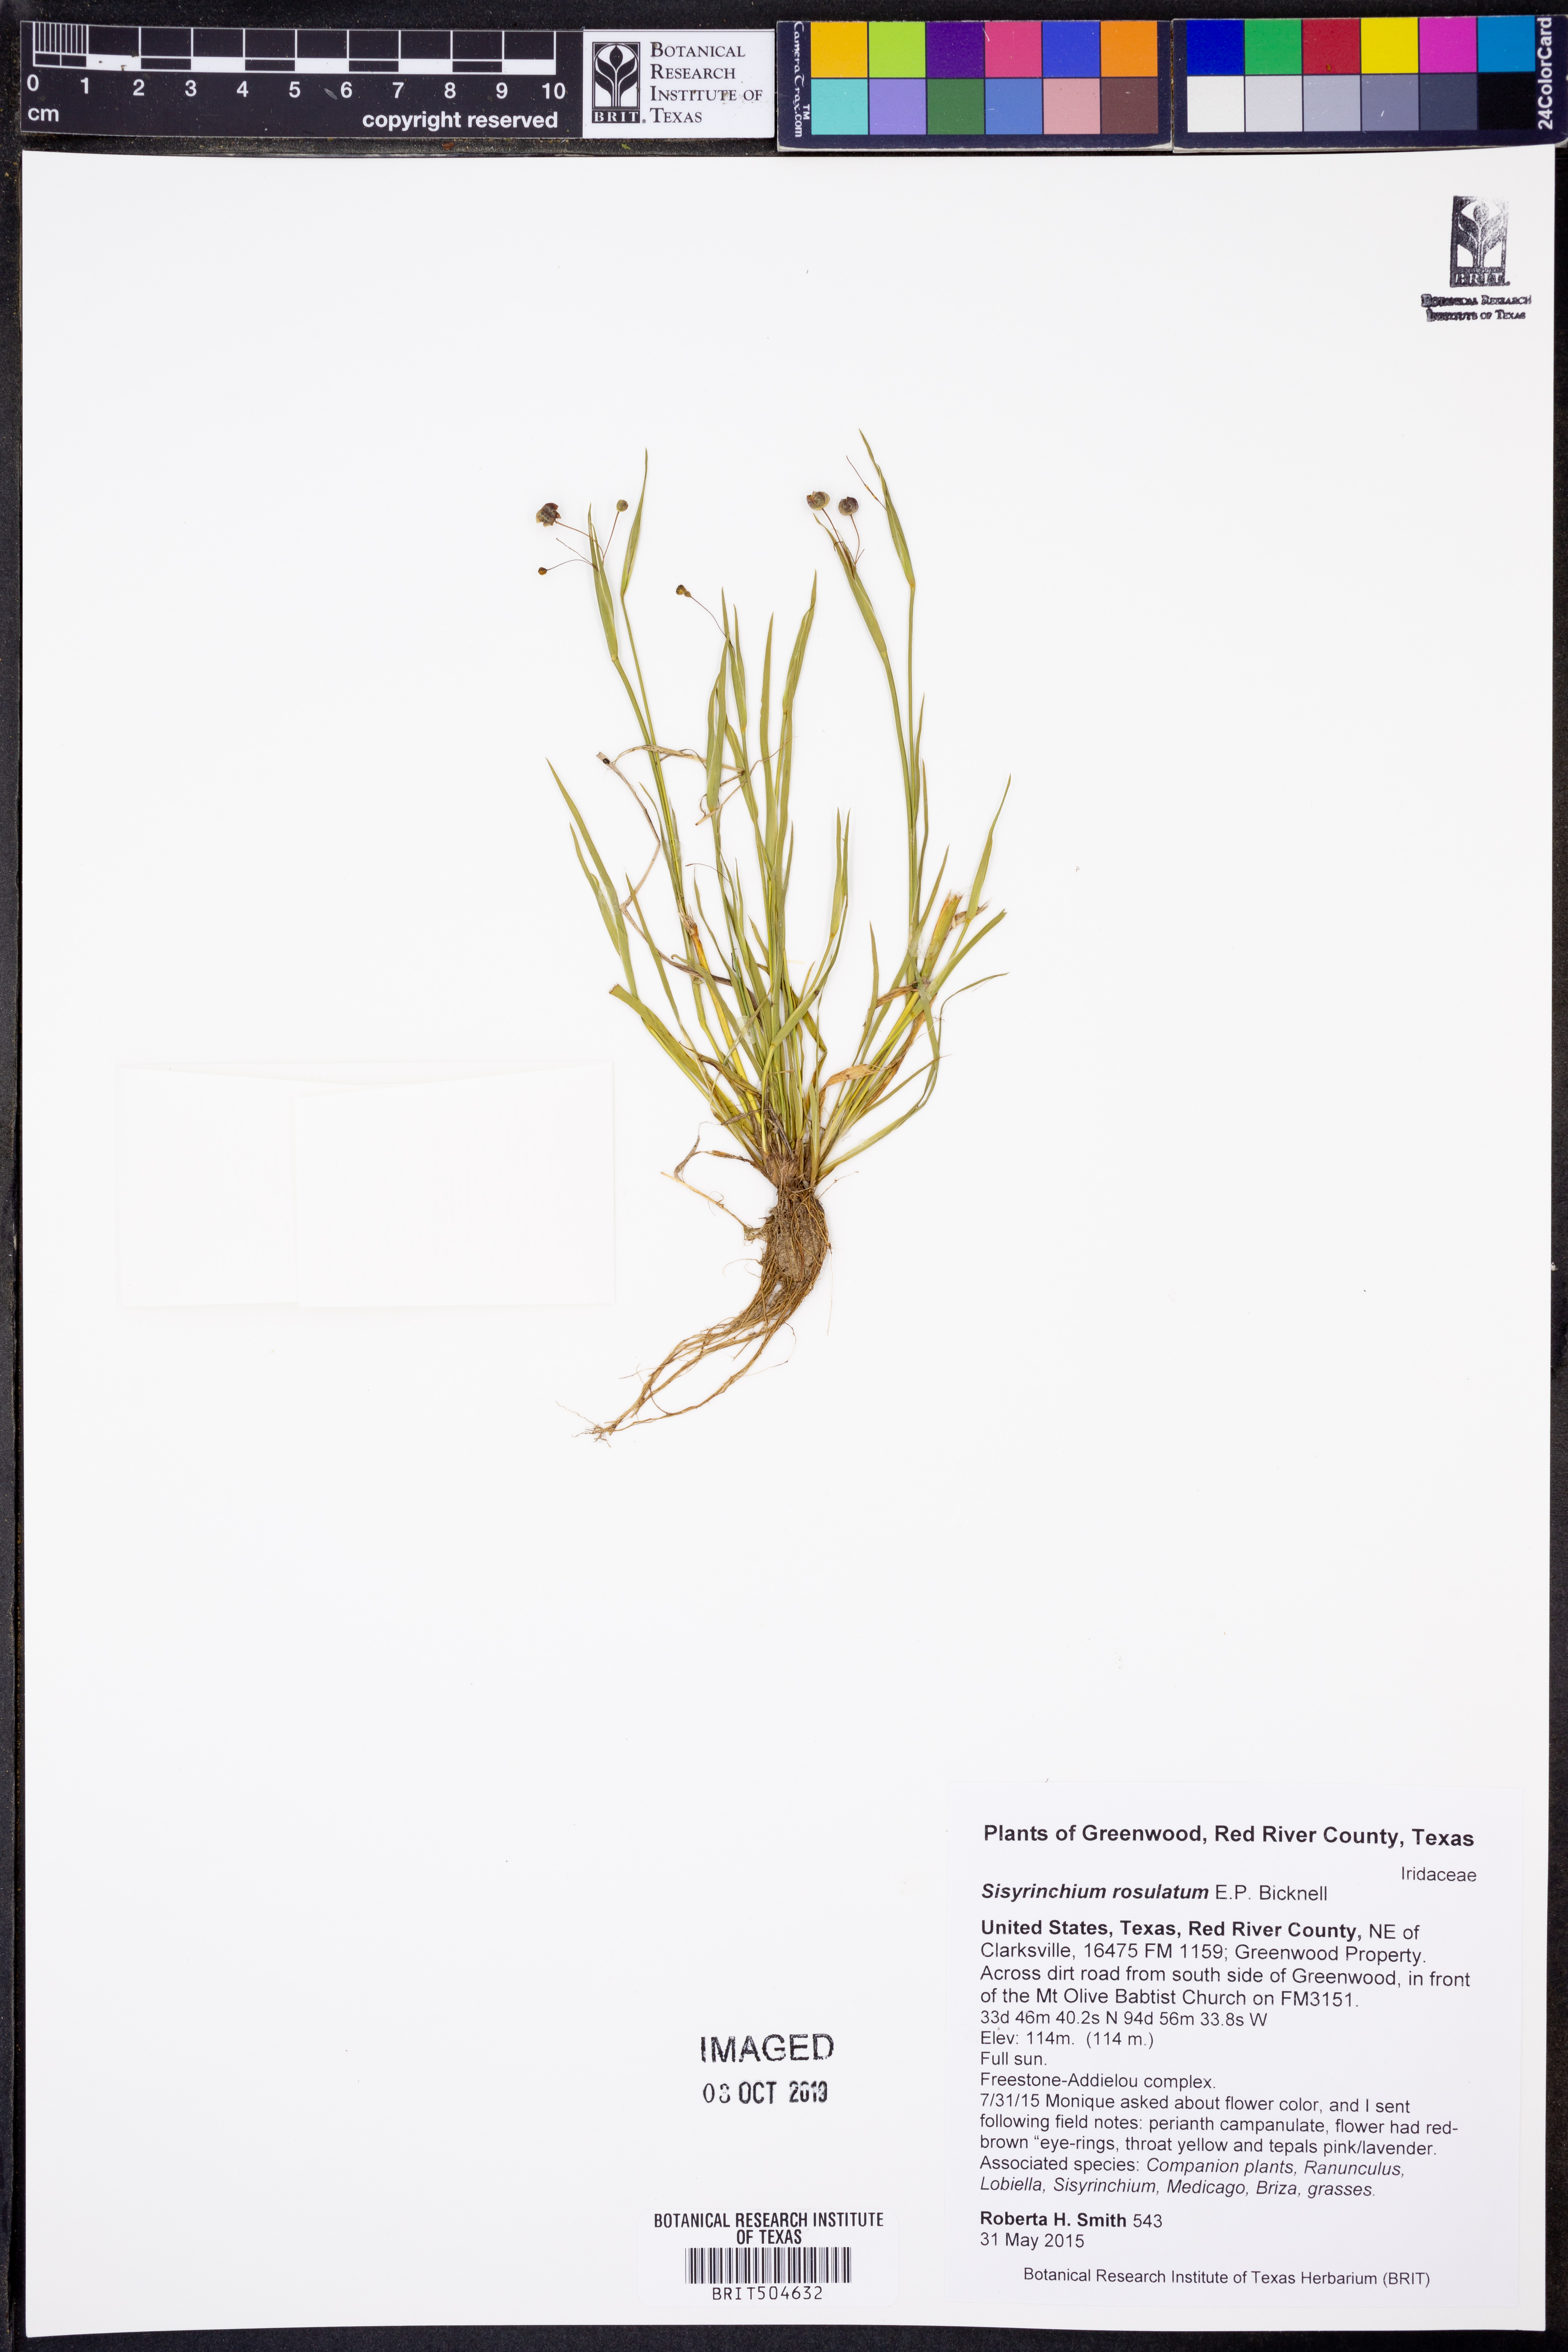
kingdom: Plantae
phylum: Tracheophyta
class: Liliopsida
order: Asparagales
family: Iridaceae
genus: Sisyrinchium
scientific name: Sisyrinchium rosulatum
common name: Annual blue-eyed grass
